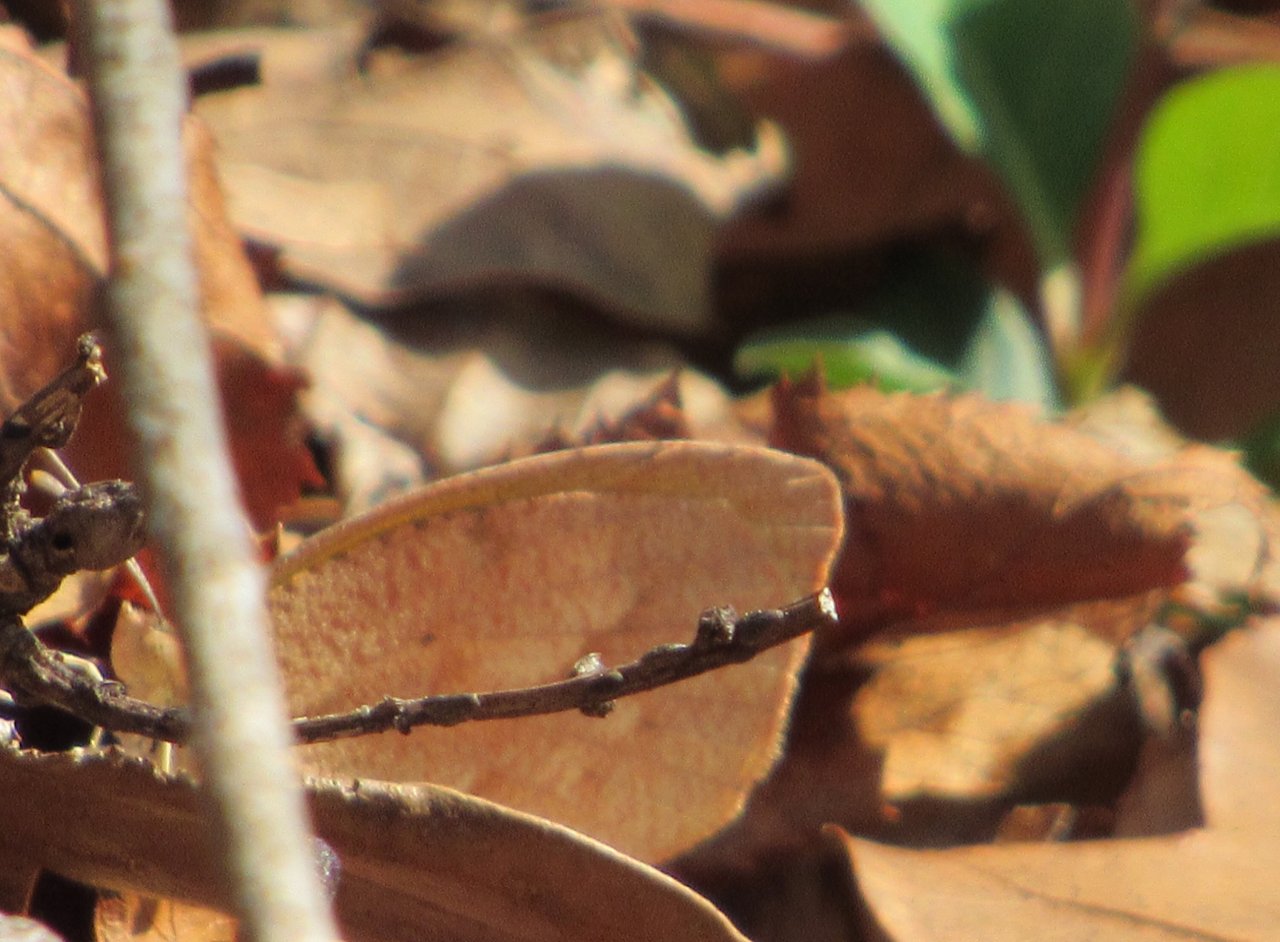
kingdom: Animalia
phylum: Arthropoda
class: Insecta
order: Lepidoptera
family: Pieridae
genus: Abaeis
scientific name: Abaeis nicippe
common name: Sleepy Orange
